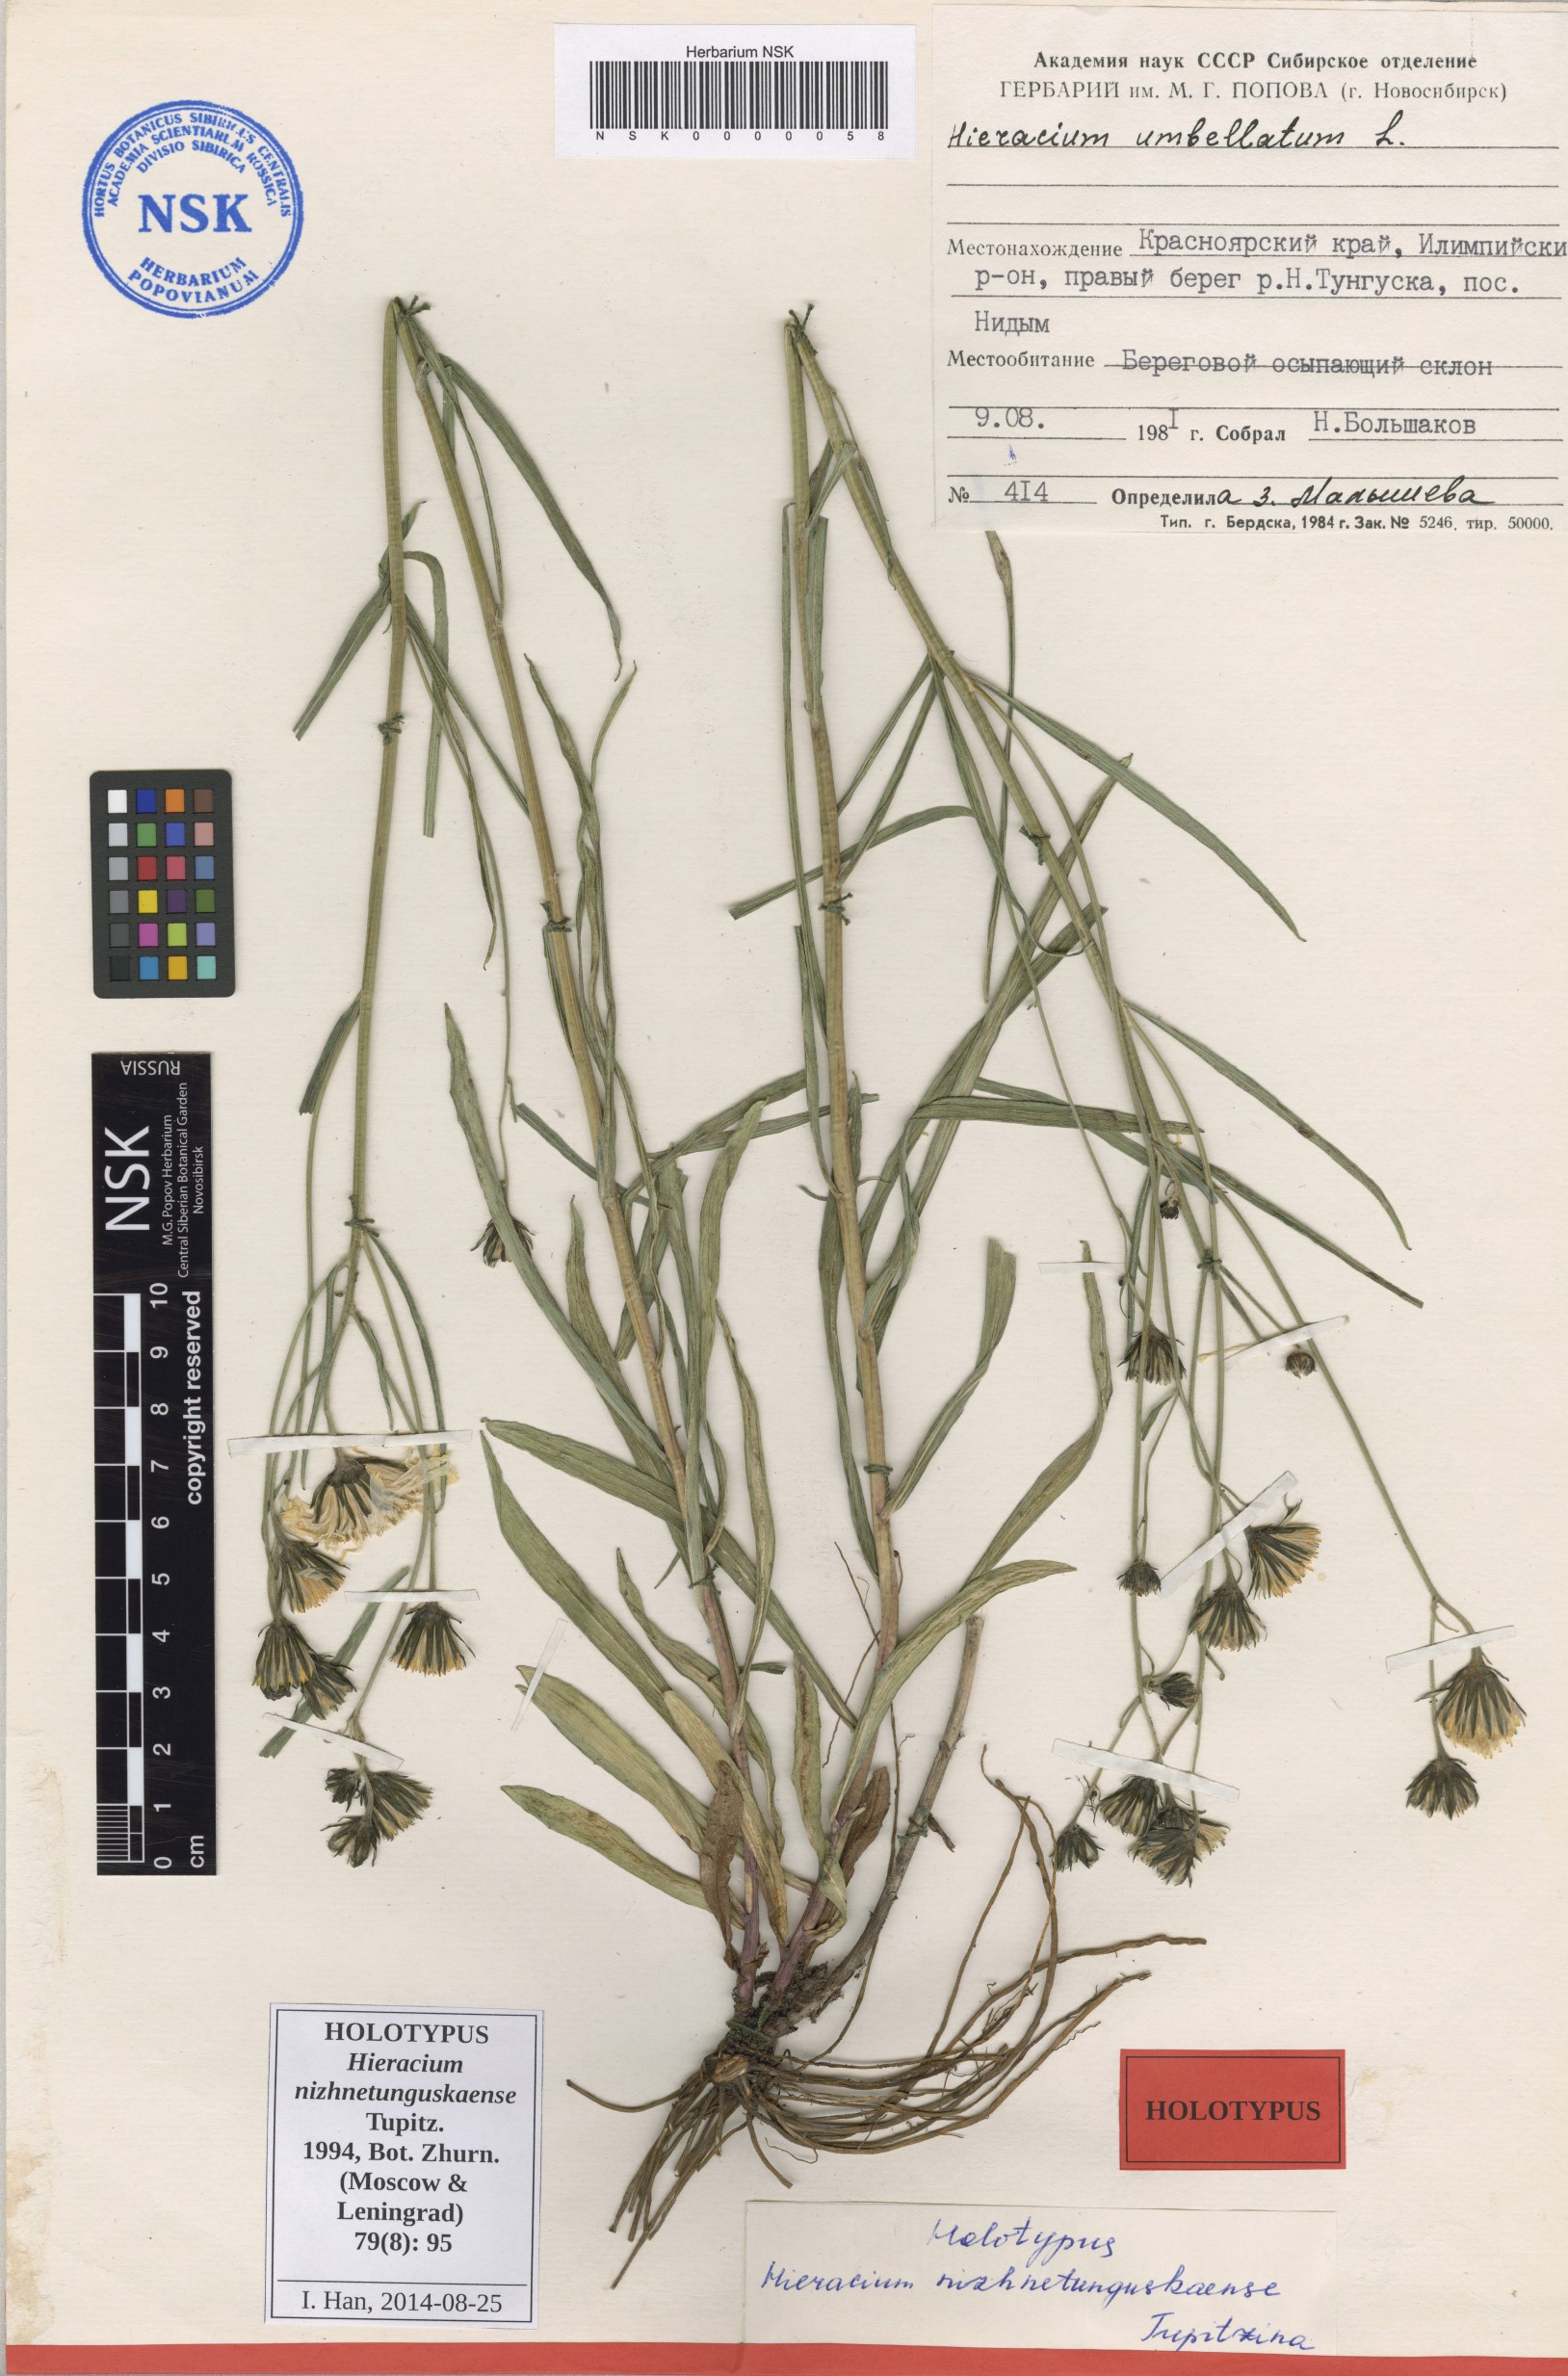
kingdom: Plantae
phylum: Tracheophyta
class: Magnoliopsida
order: Asterales
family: Asteraceae
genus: Hieracium
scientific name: Hieracium nizhnetunguskaense
